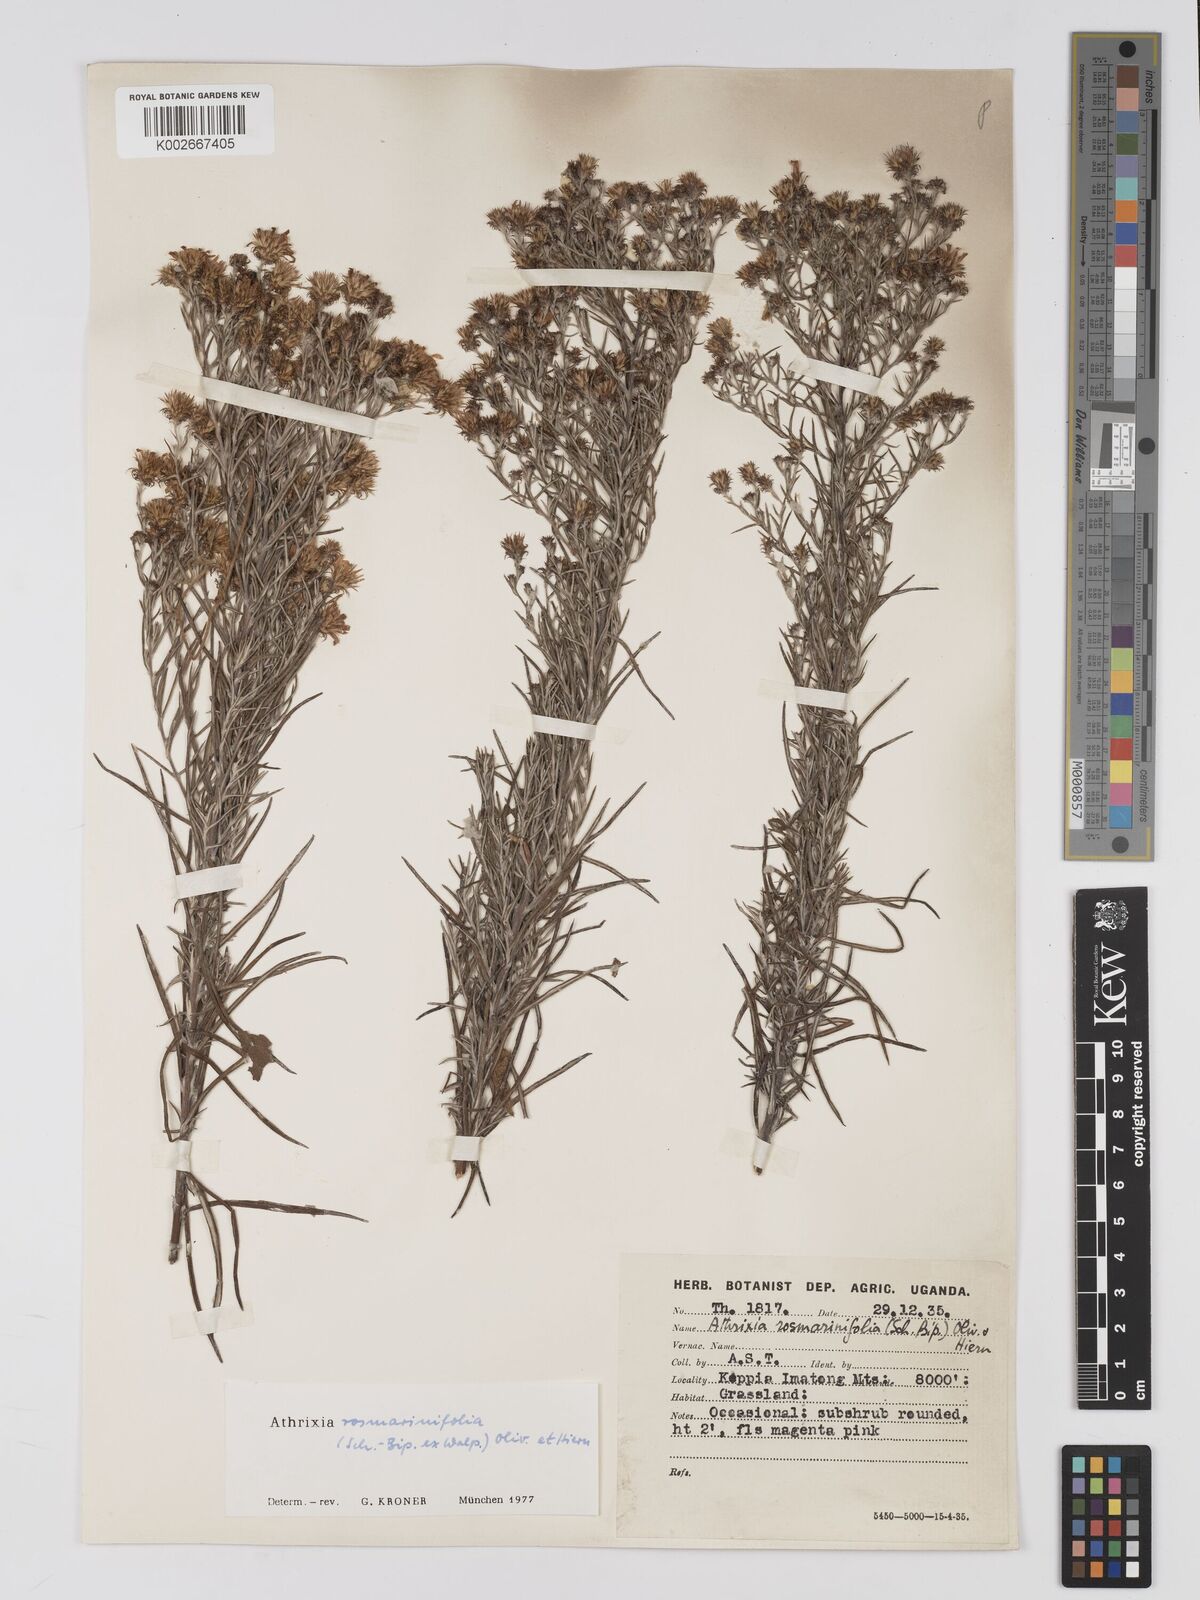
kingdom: Plantae
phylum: Tracheophyta
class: Magnoliopsida
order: Asterales
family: Asteraceae
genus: Athrixia
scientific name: Athrixia rosmarinifolia
